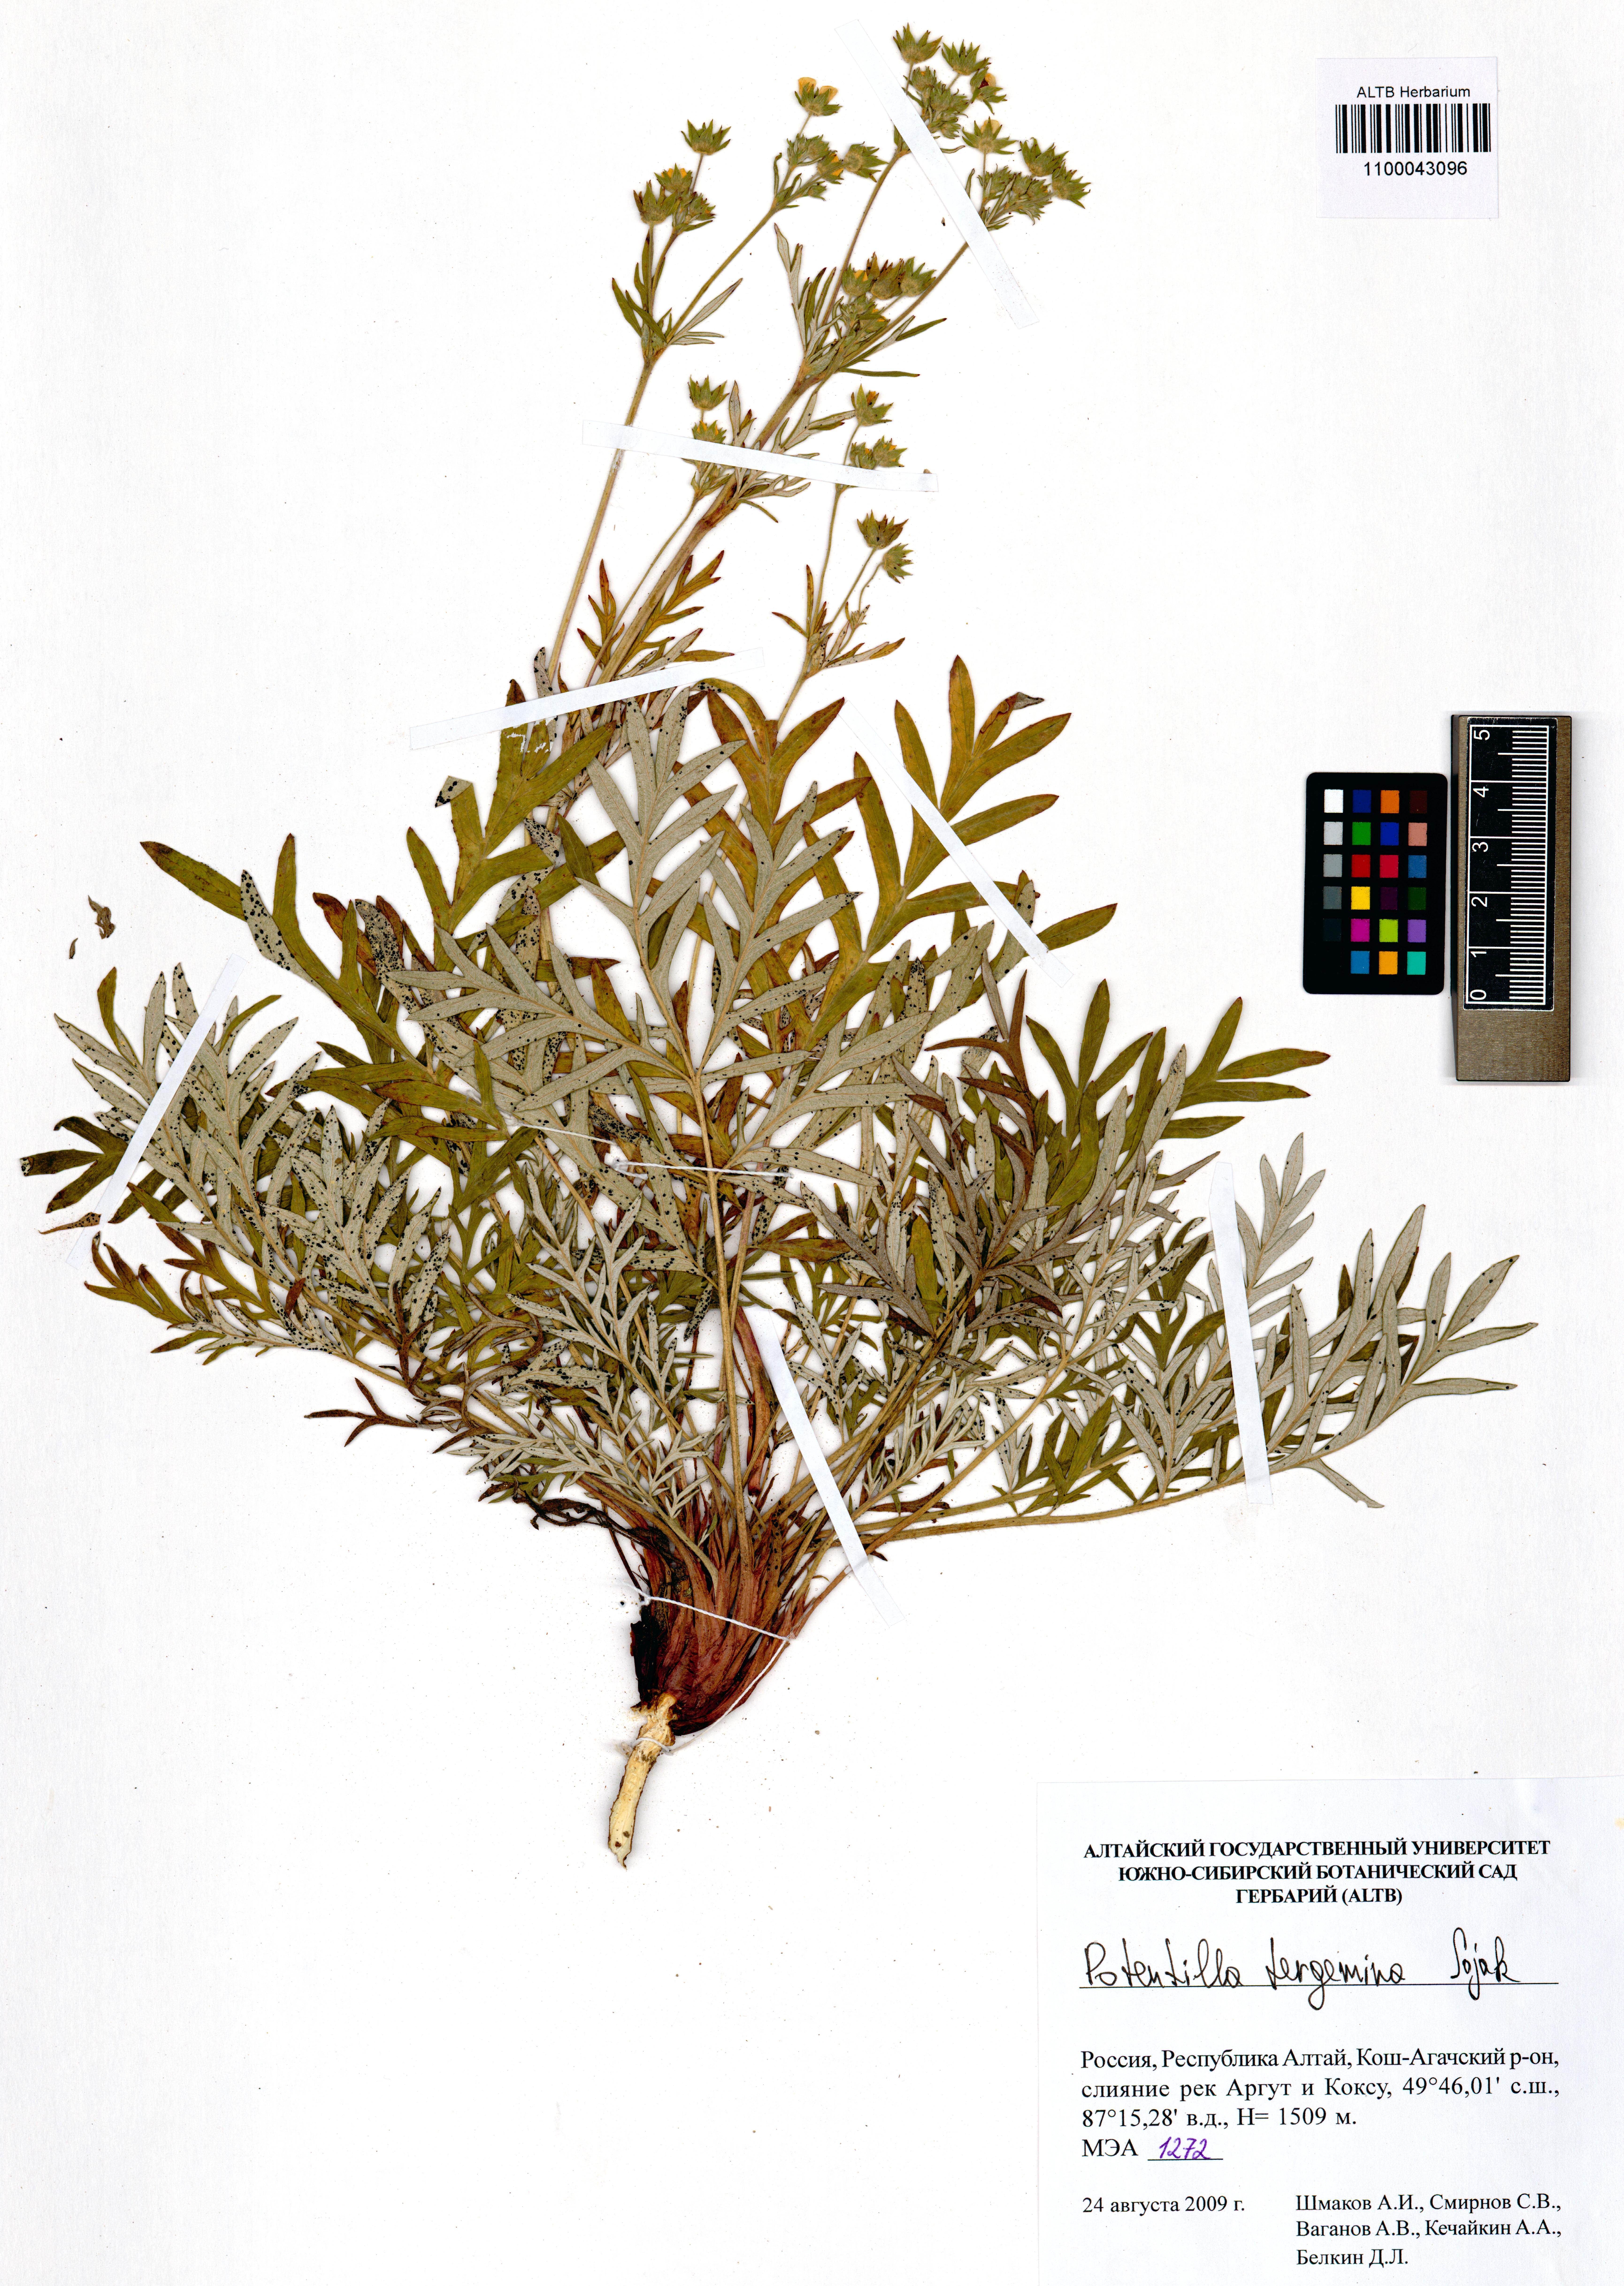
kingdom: Plantae
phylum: Tracheophyta
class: Magnoliopsida
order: Rosales
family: Rosaceae
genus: Potentilla
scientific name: Potentilla tergemina
